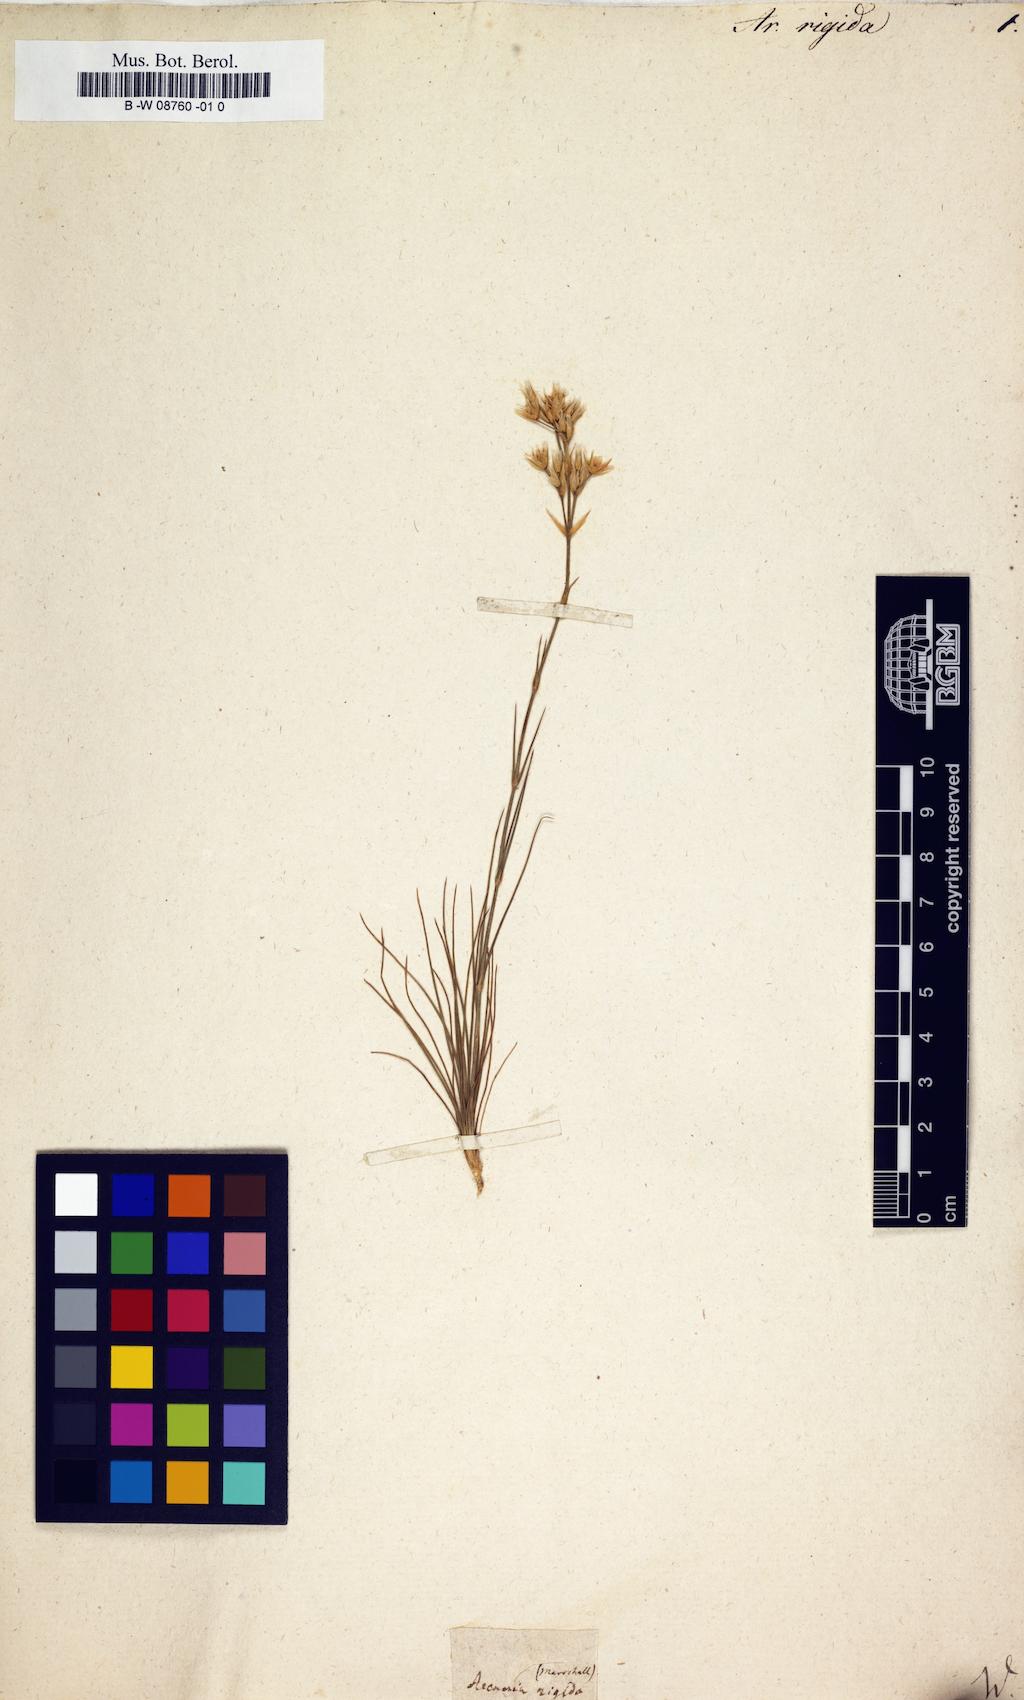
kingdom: Plantae
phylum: Tracheophyta
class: Magnoliopsida
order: Caryophyllales
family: Caryophyllaceae
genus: Eremogone
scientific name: Eremogone rigida
